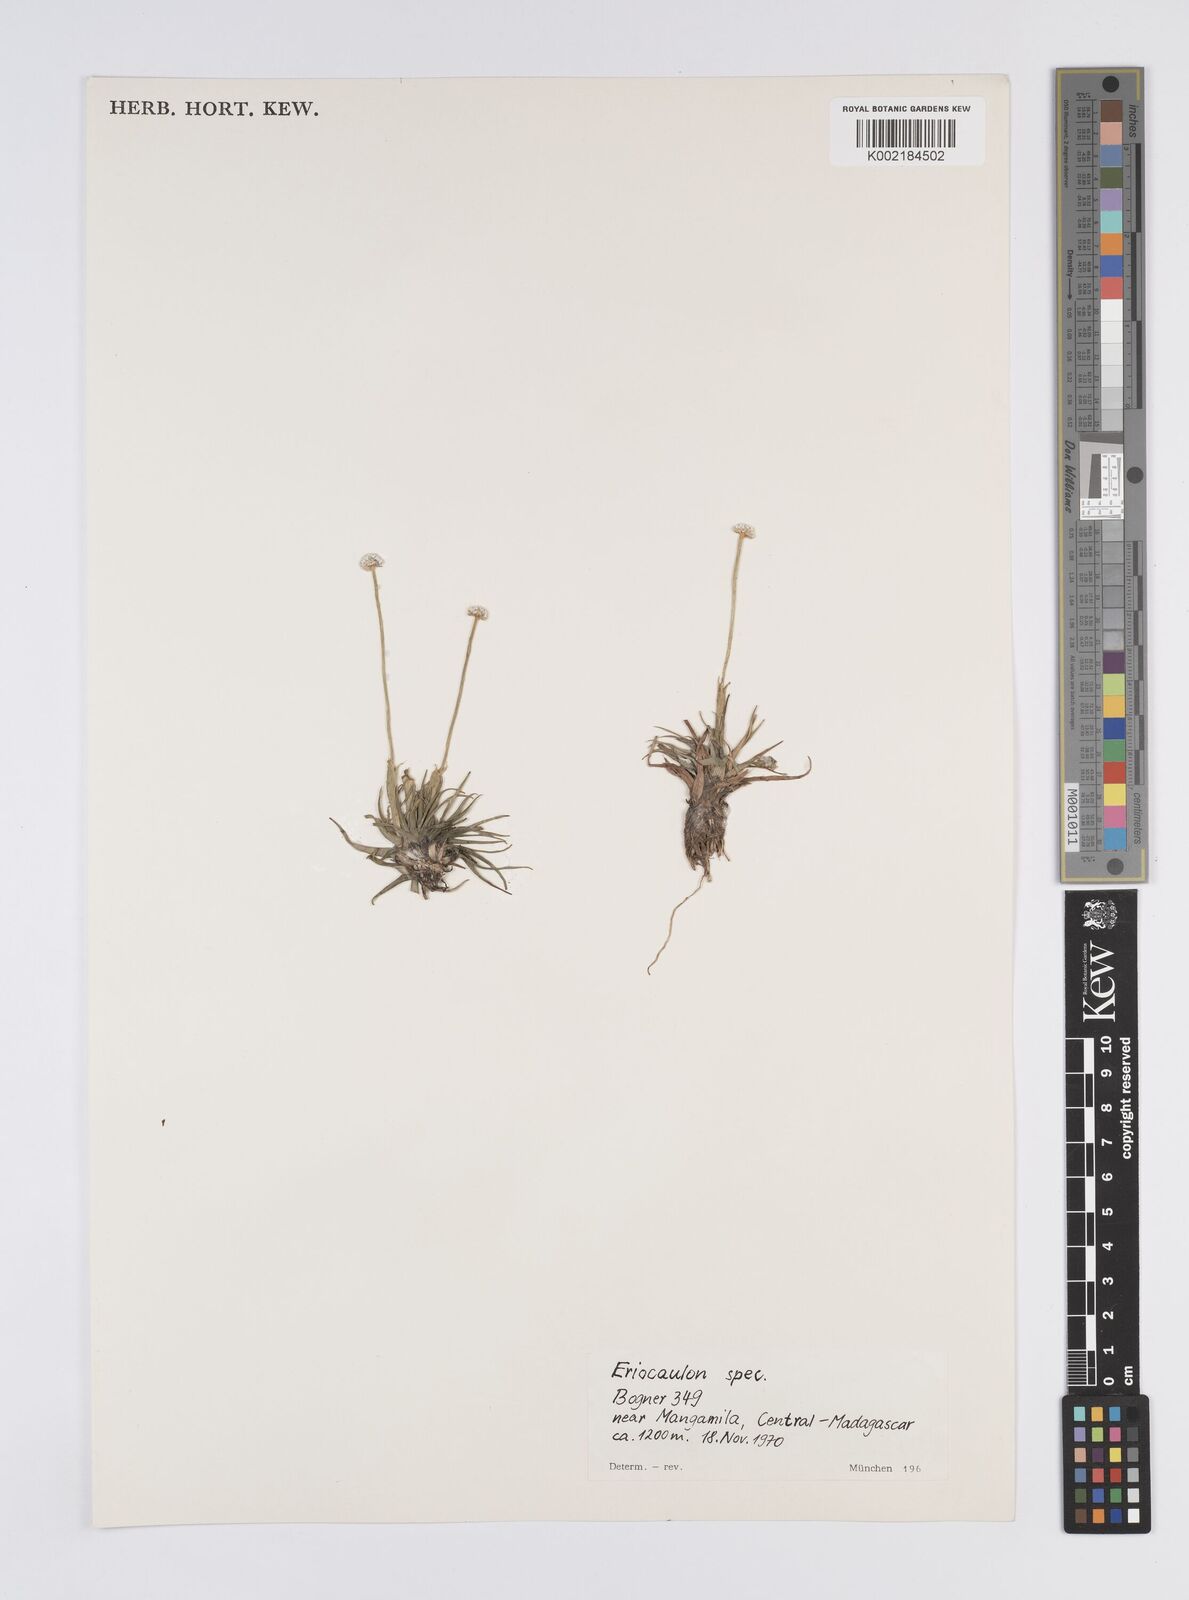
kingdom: Plantae
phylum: Tracheophyta
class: Liliopsida
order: Poales
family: Eriocaulaceae
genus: Eriocaulon
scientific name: Eriocaulon
